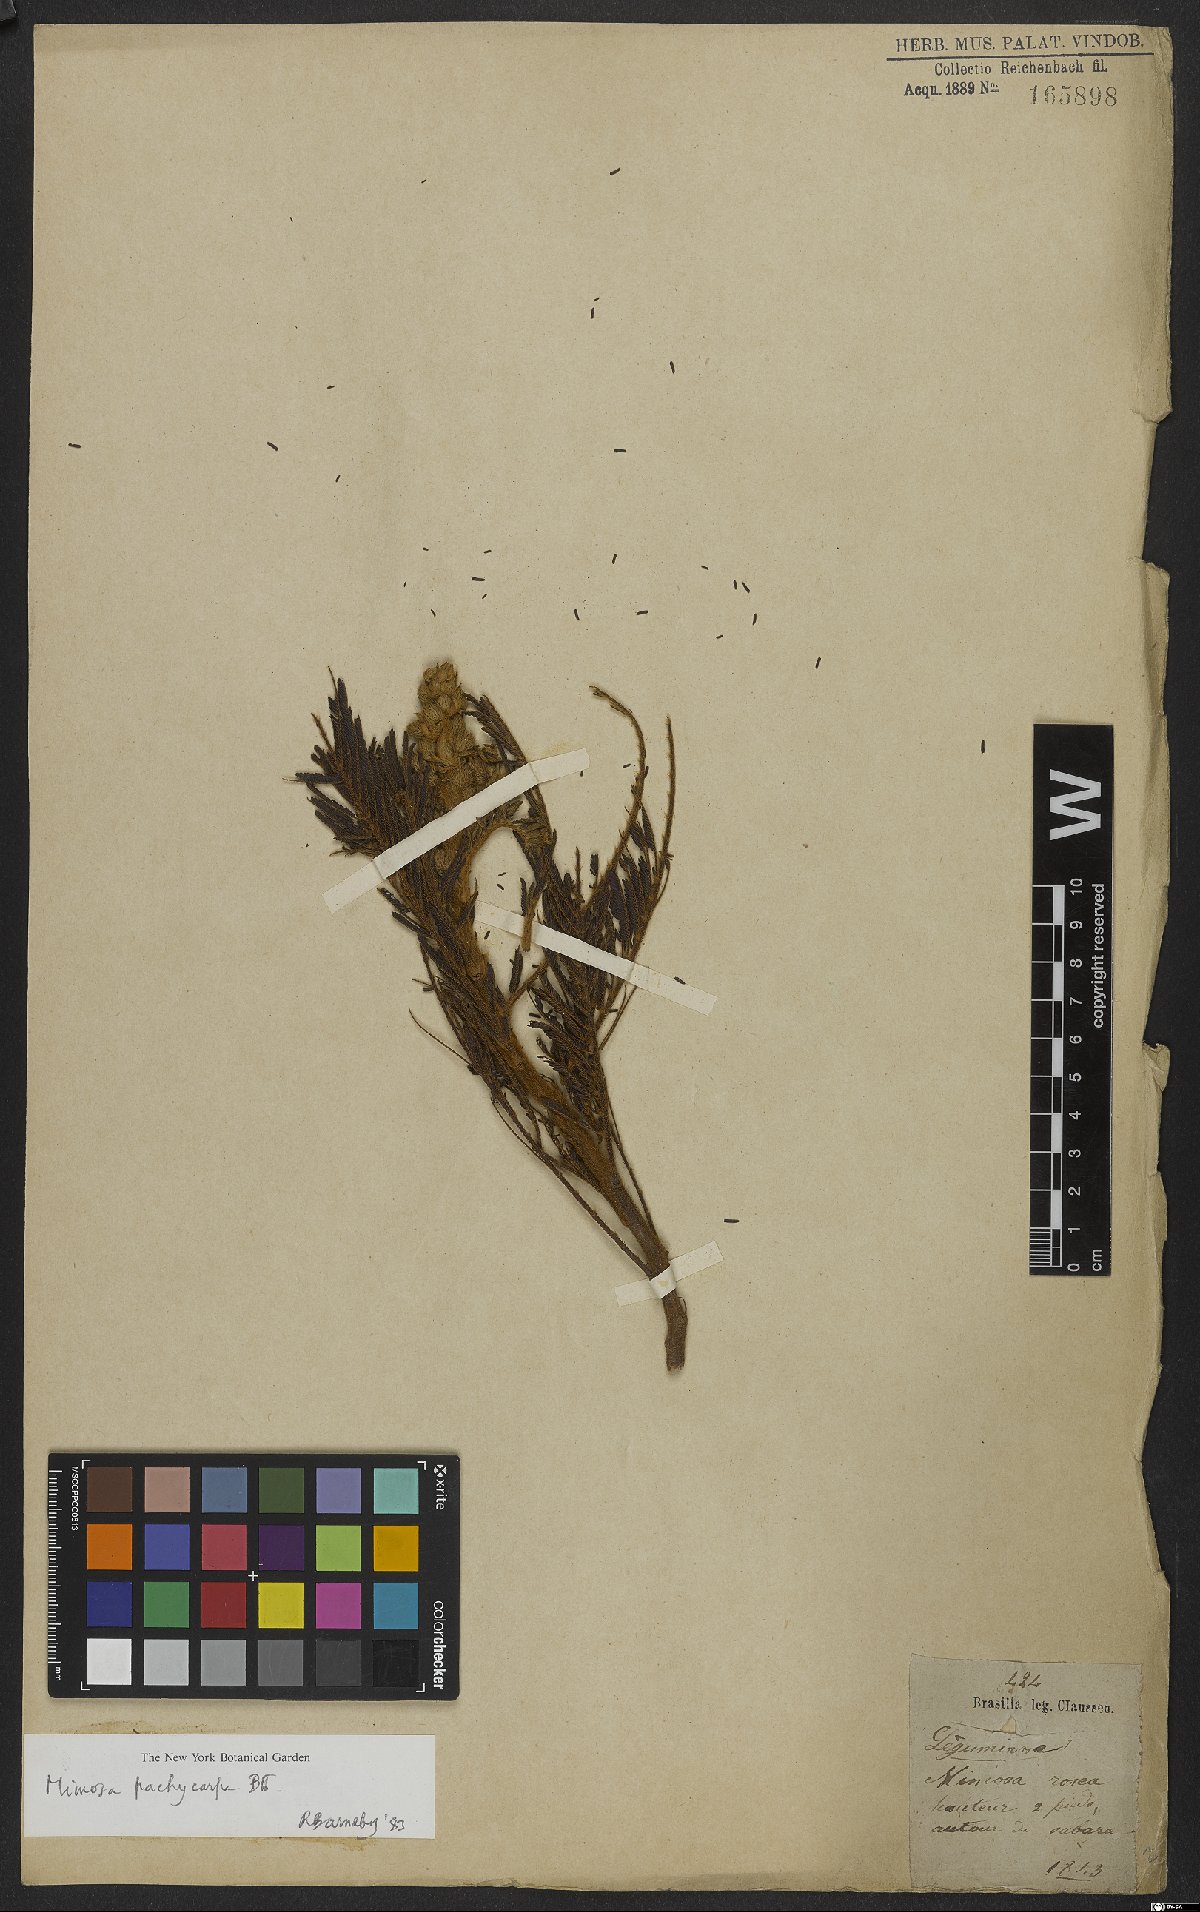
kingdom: Plantae
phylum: Tracheophyta
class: Magnoliopsida
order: Fabales
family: Fabaceae
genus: Mimosa
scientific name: Mimosa foliolosa
